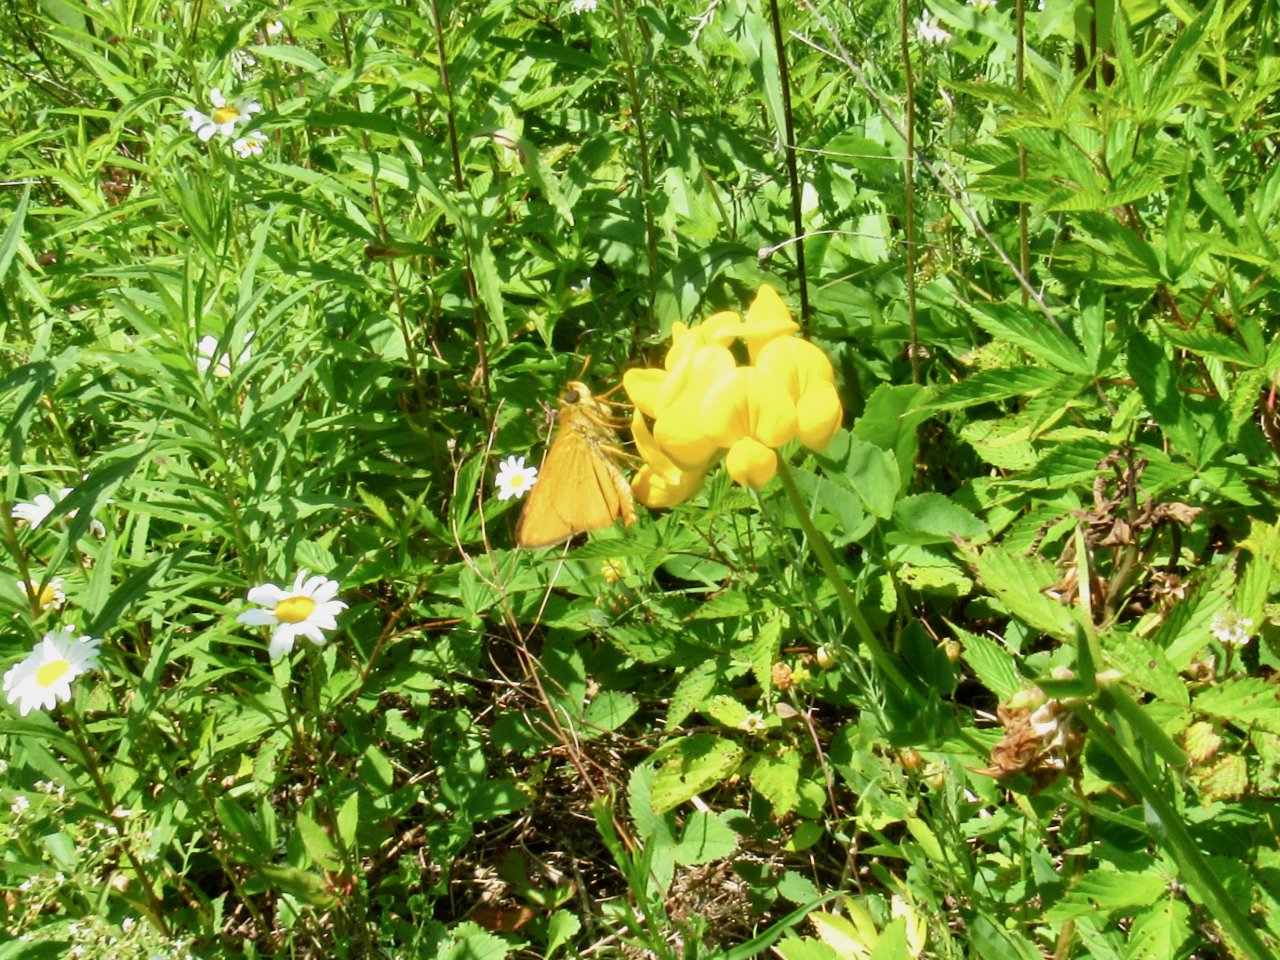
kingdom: Animalia
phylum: Arthropoda
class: Insecta
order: Lepidoptera
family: Hesperiidae
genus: Atrytone
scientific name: Atrytone delaware
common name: Delaware Skipper
